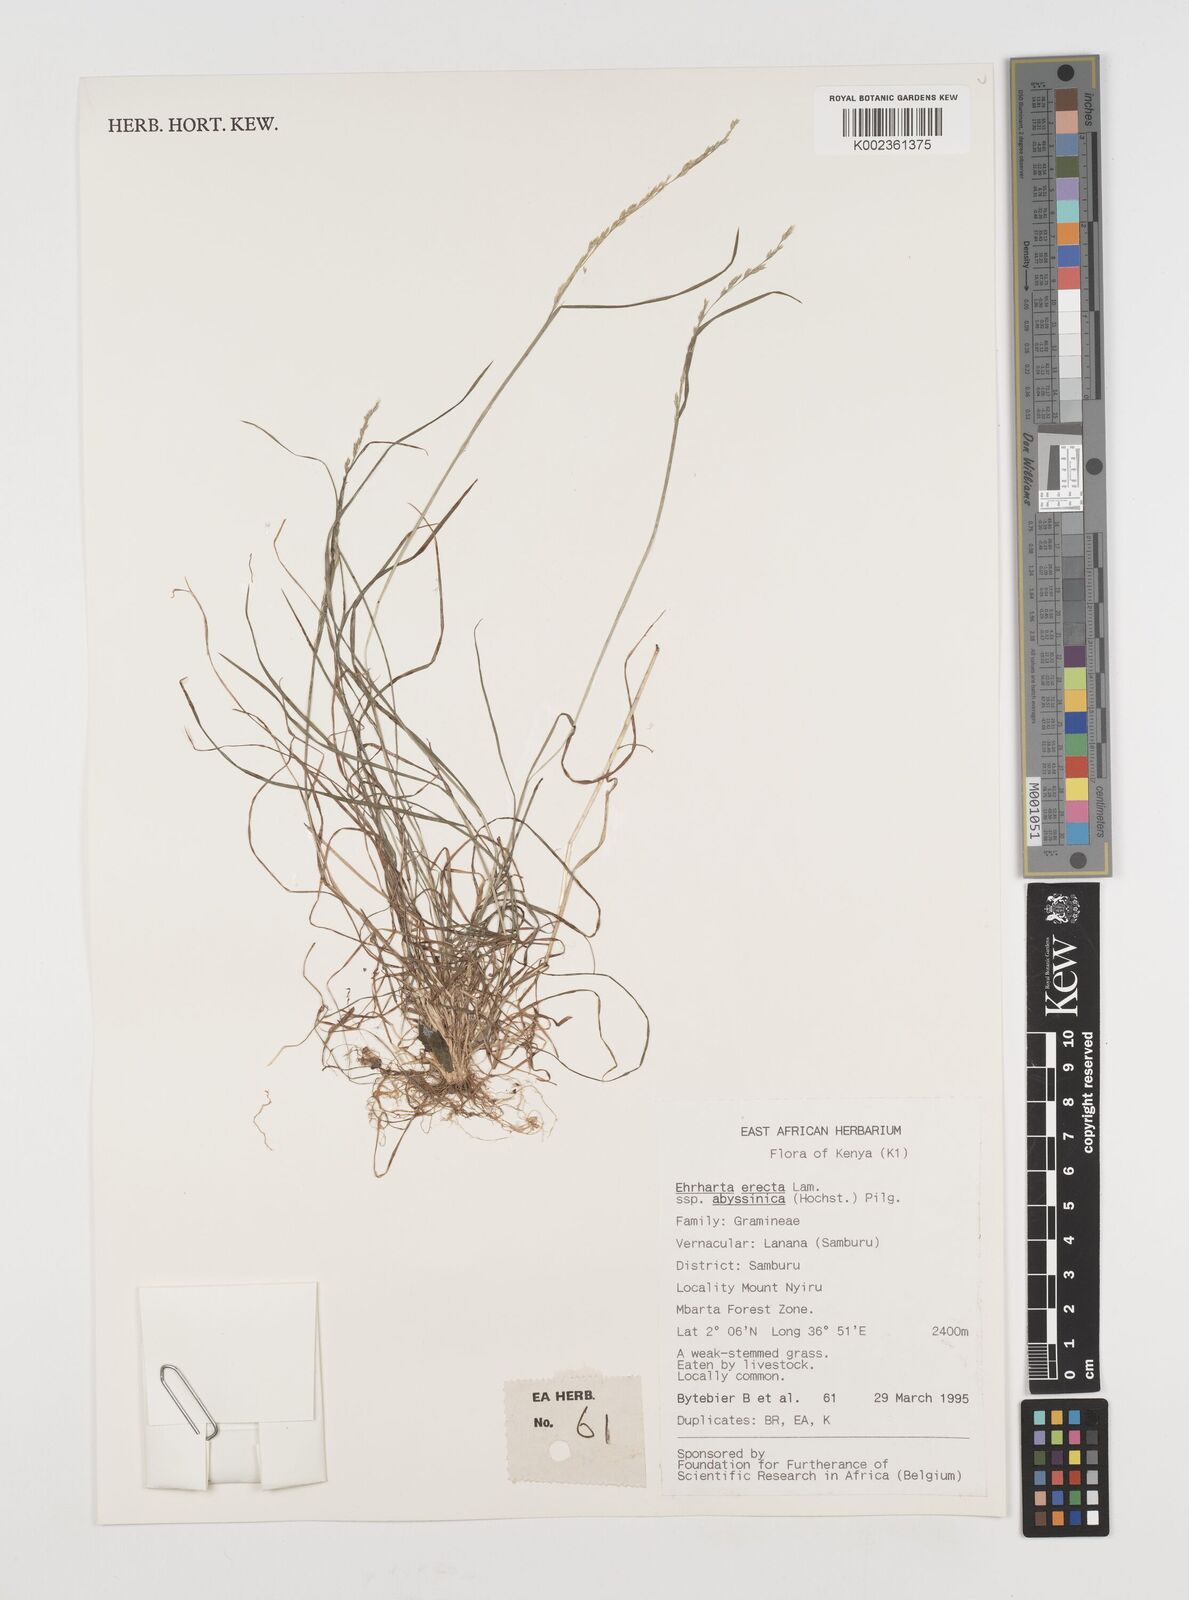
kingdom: Plantae
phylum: Tracheophyta
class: Liliopsida
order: Poales
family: Poaceae
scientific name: Poaceae
